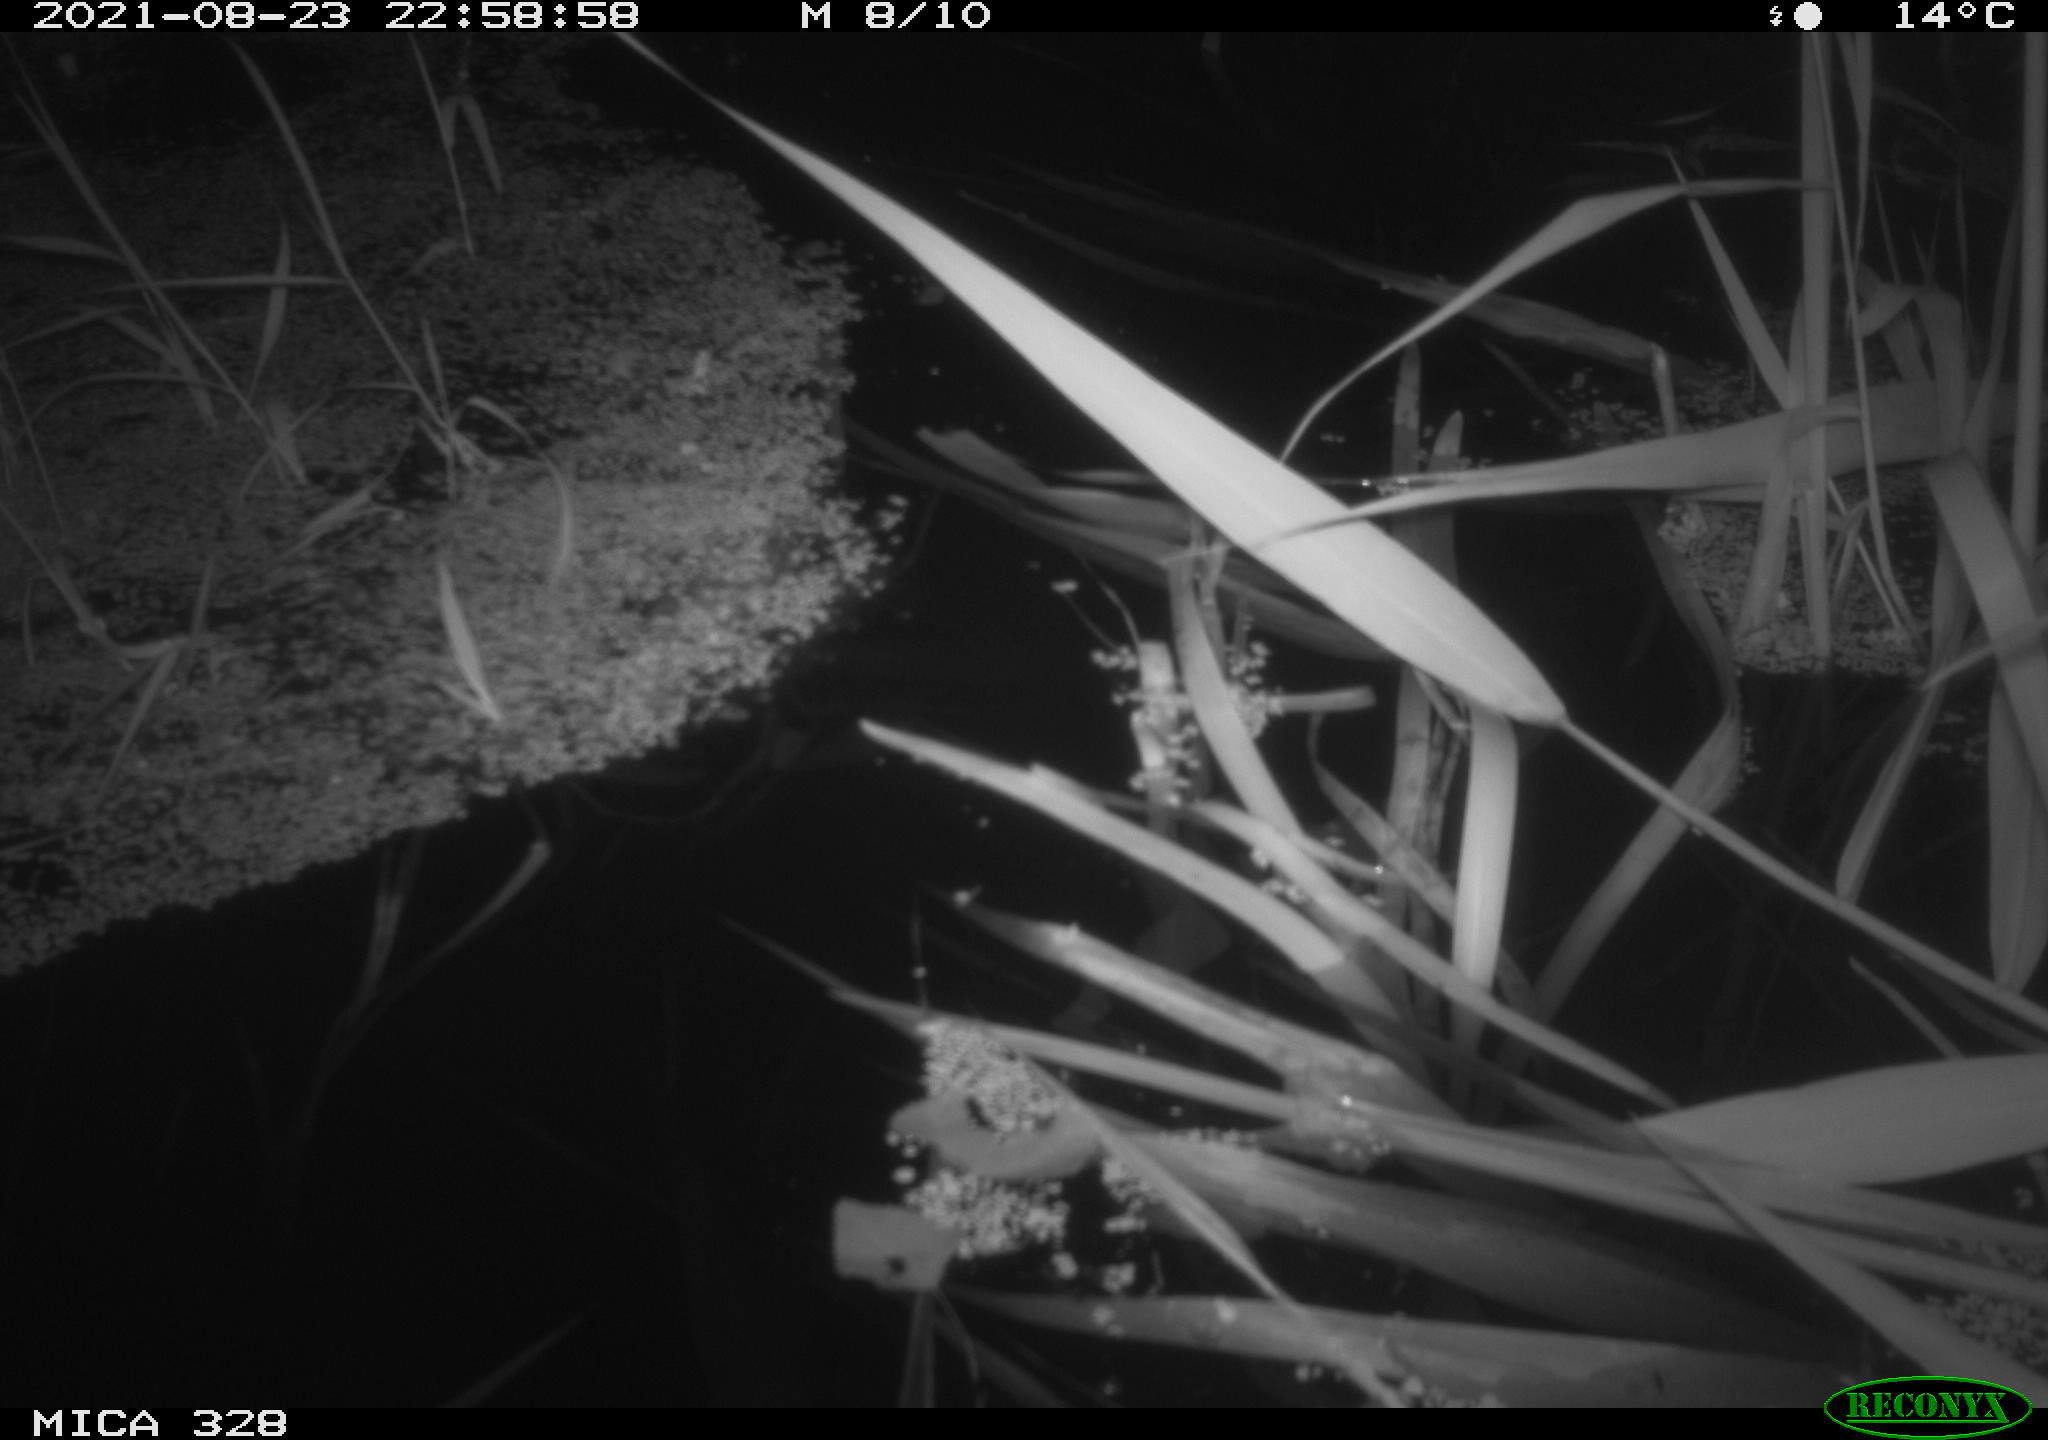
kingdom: Animalia
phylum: Chordata
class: Mammalia
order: Rodentia
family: Muridae
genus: Rattus
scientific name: Rattus norvegicus
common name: Brown rat
